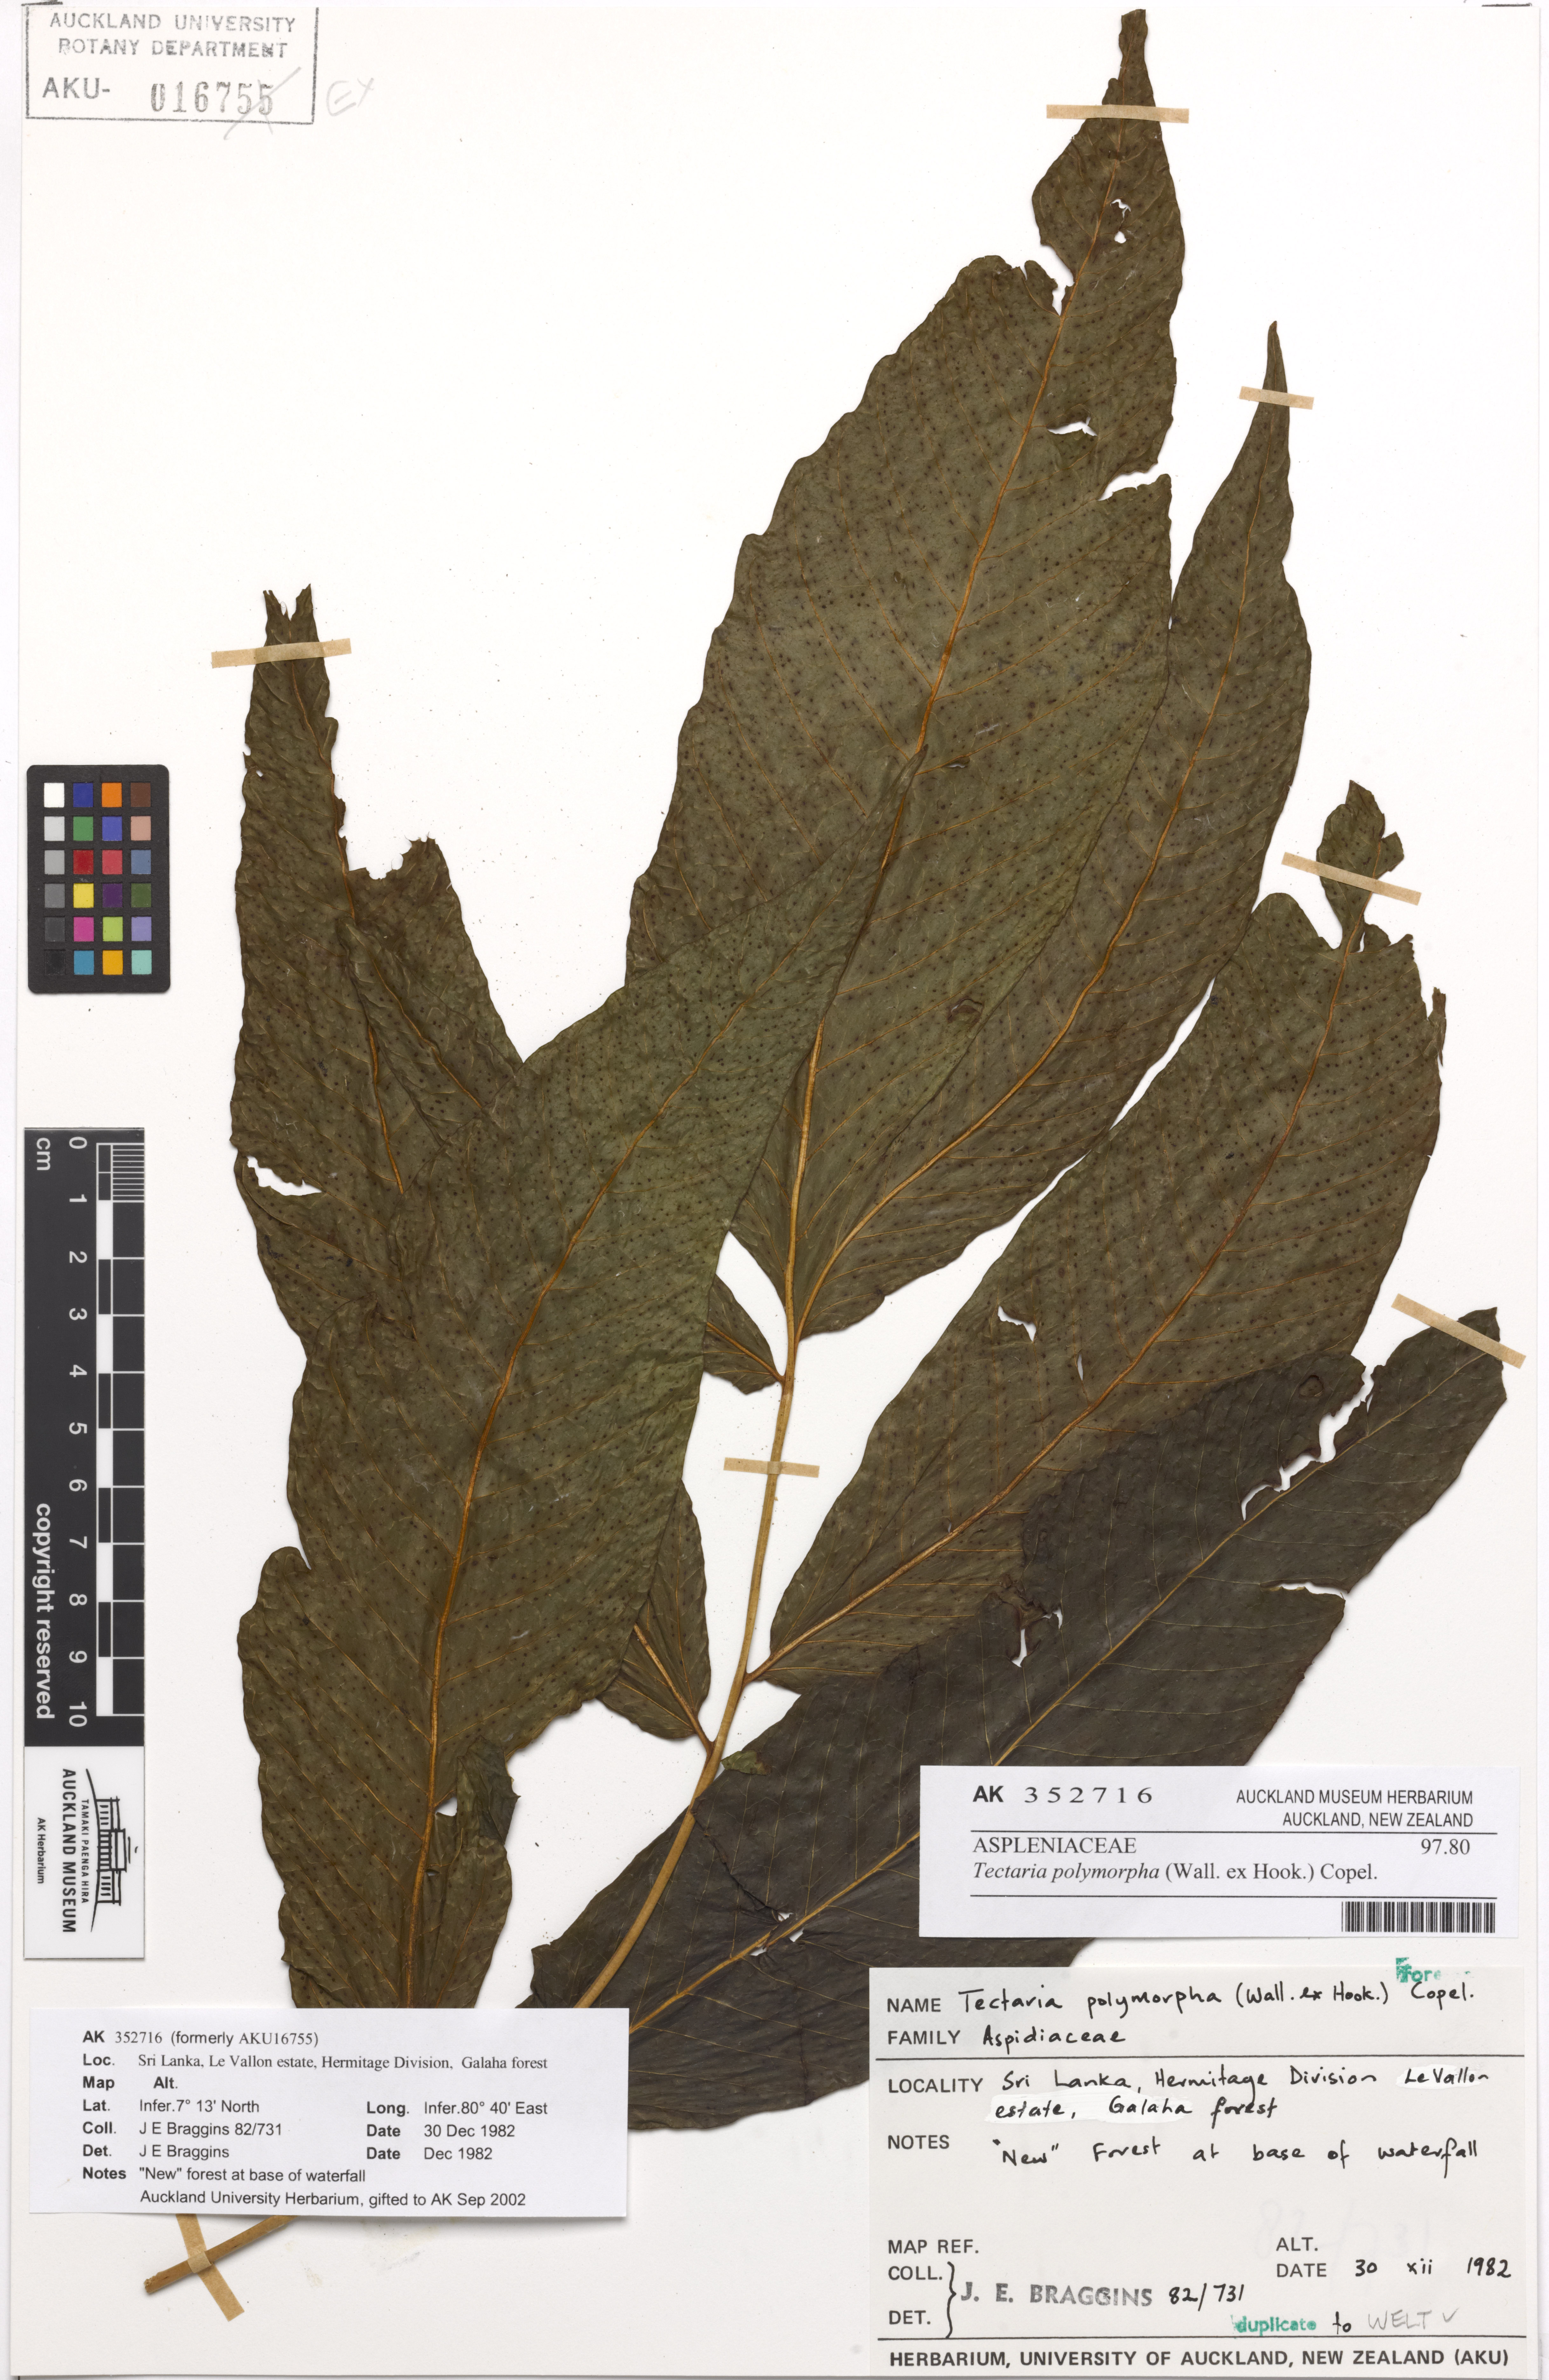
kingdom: Plantae
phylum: Tracheophyta
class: Polypodiopsida
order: Polypodiales
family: Tectariaceae
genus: Tectaria
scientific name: Tectaria polymorpha
